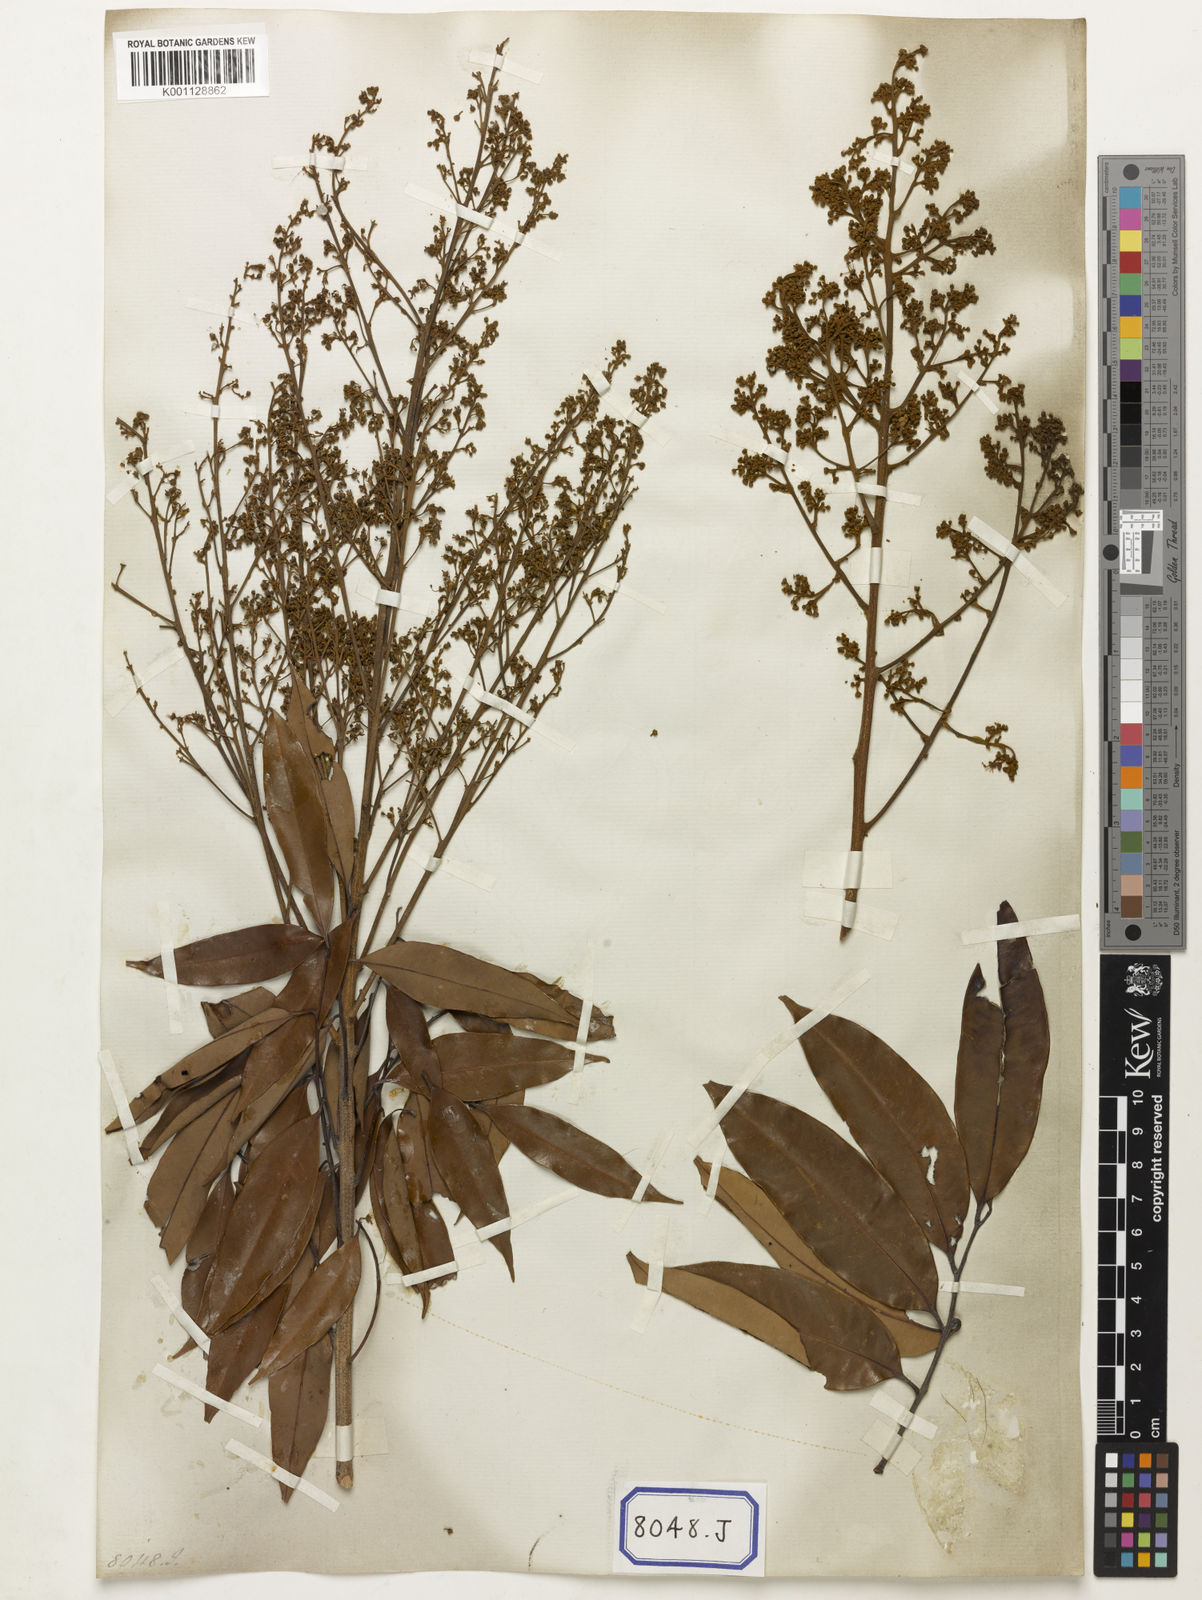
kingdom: Animalia
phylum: Arthropoda
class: Insecta
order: Coleoptera
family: Scarabaeidae
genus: Euphoria
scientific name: Euphoria
